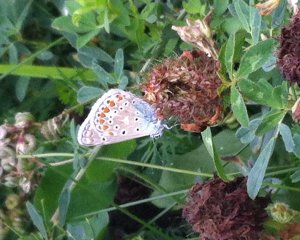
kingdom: Animalia
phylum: Arthropoda
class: Insecta
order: Lepidoptera
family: Lycaenidae
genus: Polyommatus
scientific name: Polyommatus icarus
